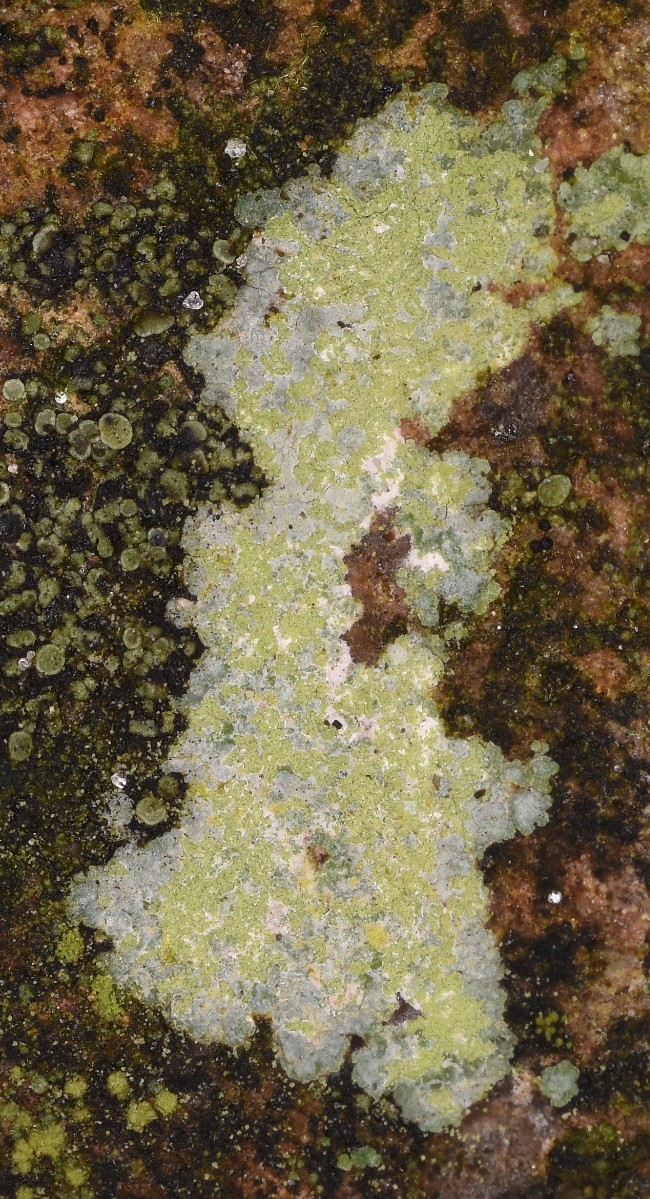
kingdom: Fungi
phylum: Ascomycota
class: Lecanoromycetes
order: Baeomycetales
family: Trapeliaceae
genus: Kleopowiella
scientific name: Kleopowiella placodioides
